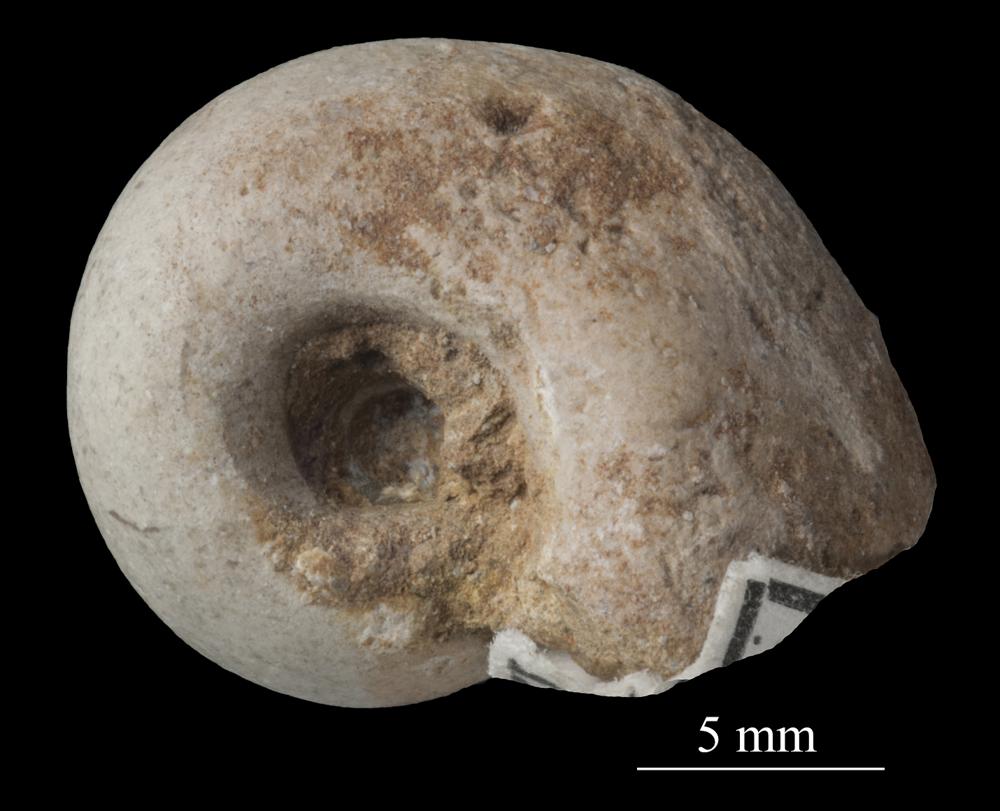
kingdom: Animalia
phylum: Mollusca
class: Gastropoda
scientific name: Gastropoda
